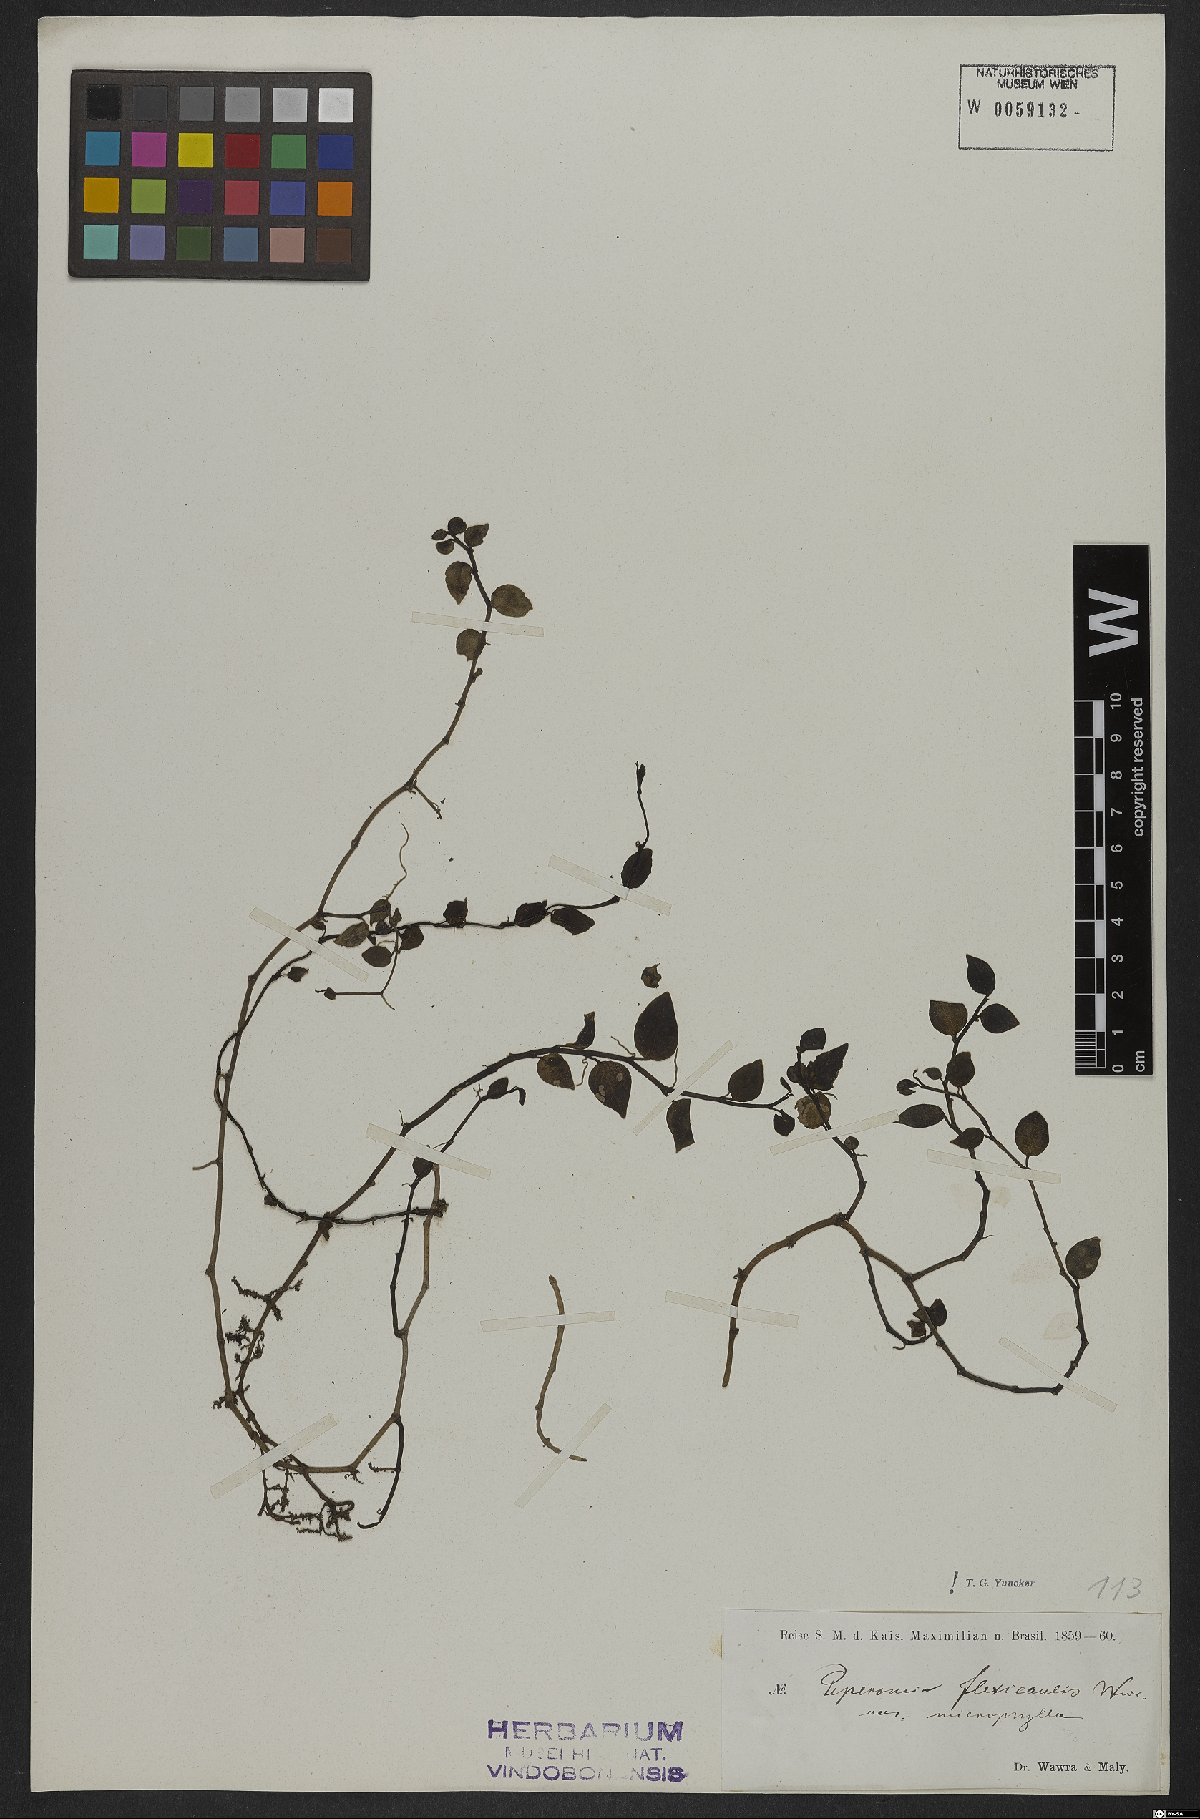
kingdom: Plantae
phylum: Tracheophyta
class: Magnoliopsida
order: Piperales
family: Piperaceae
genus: Peperomia
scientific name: Peperomia flexicaulis
